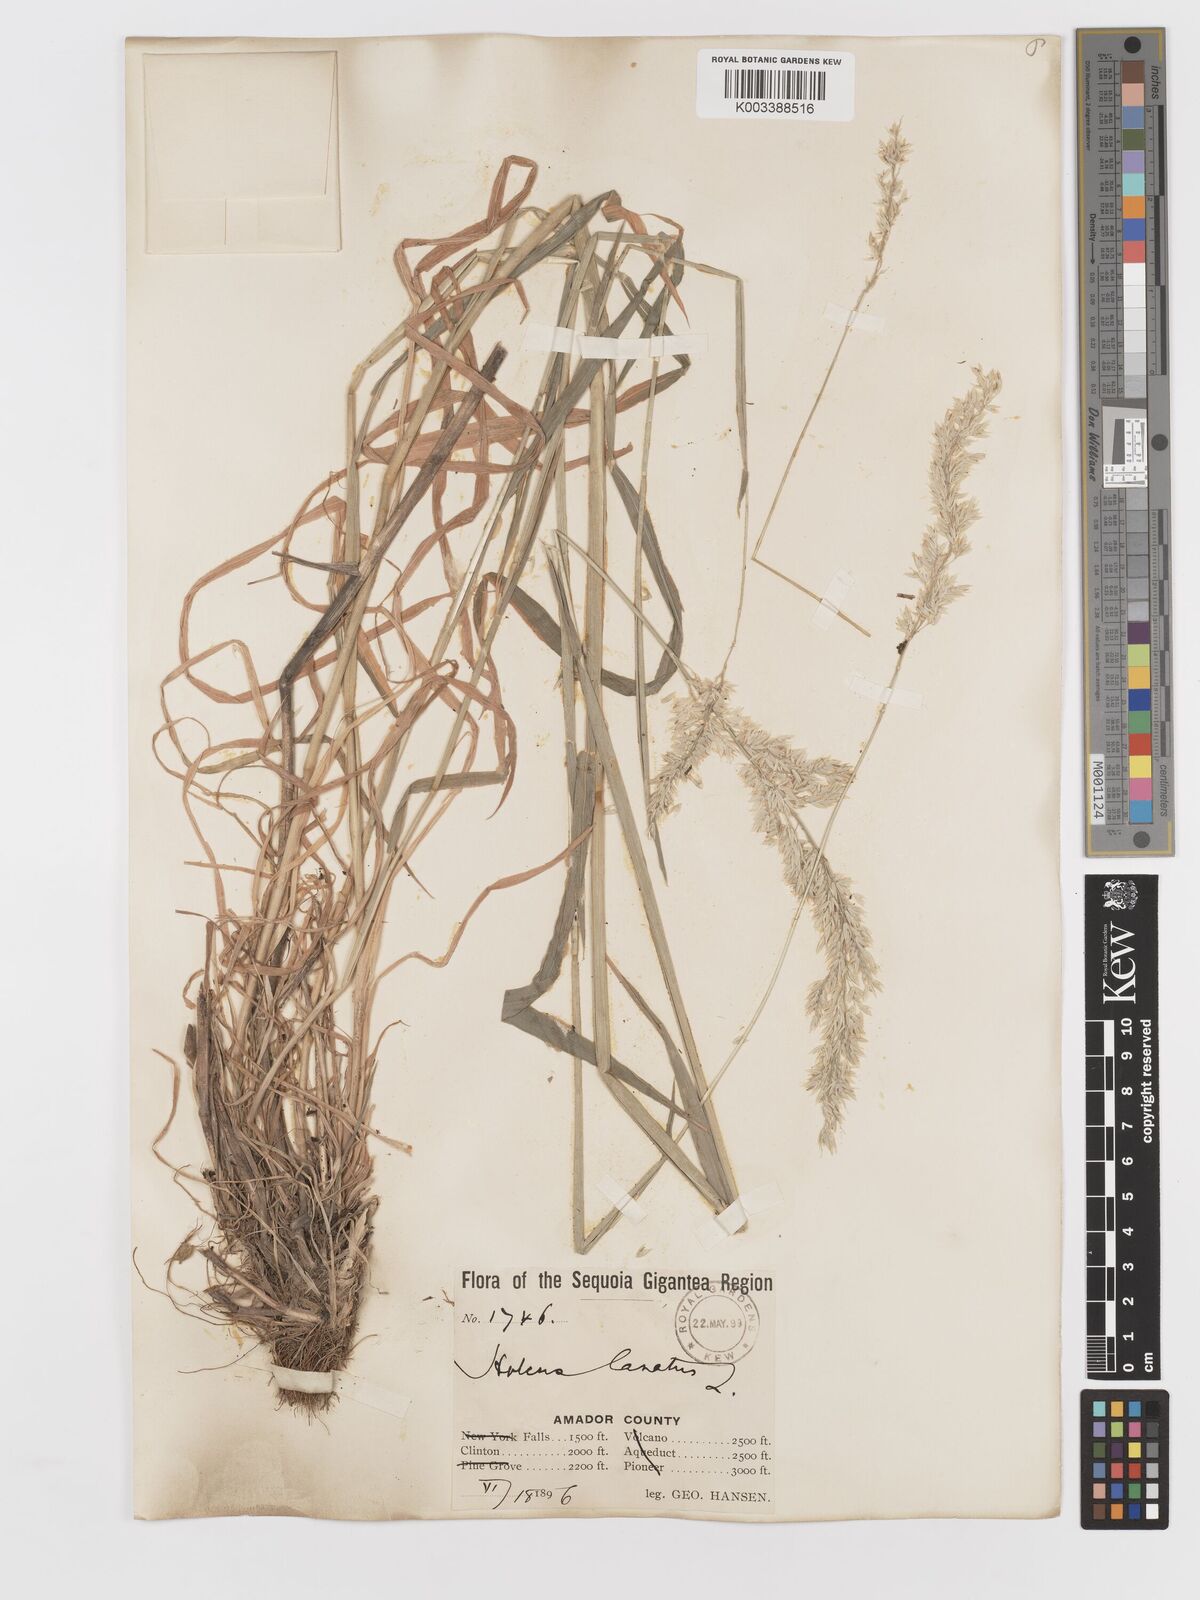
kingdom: Plantae
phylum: Tracheophyta
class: Liliopsida
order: Poales
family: Poaceae
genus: Holcus
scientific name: Holcus lanatus
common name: Yorkshire-fog
